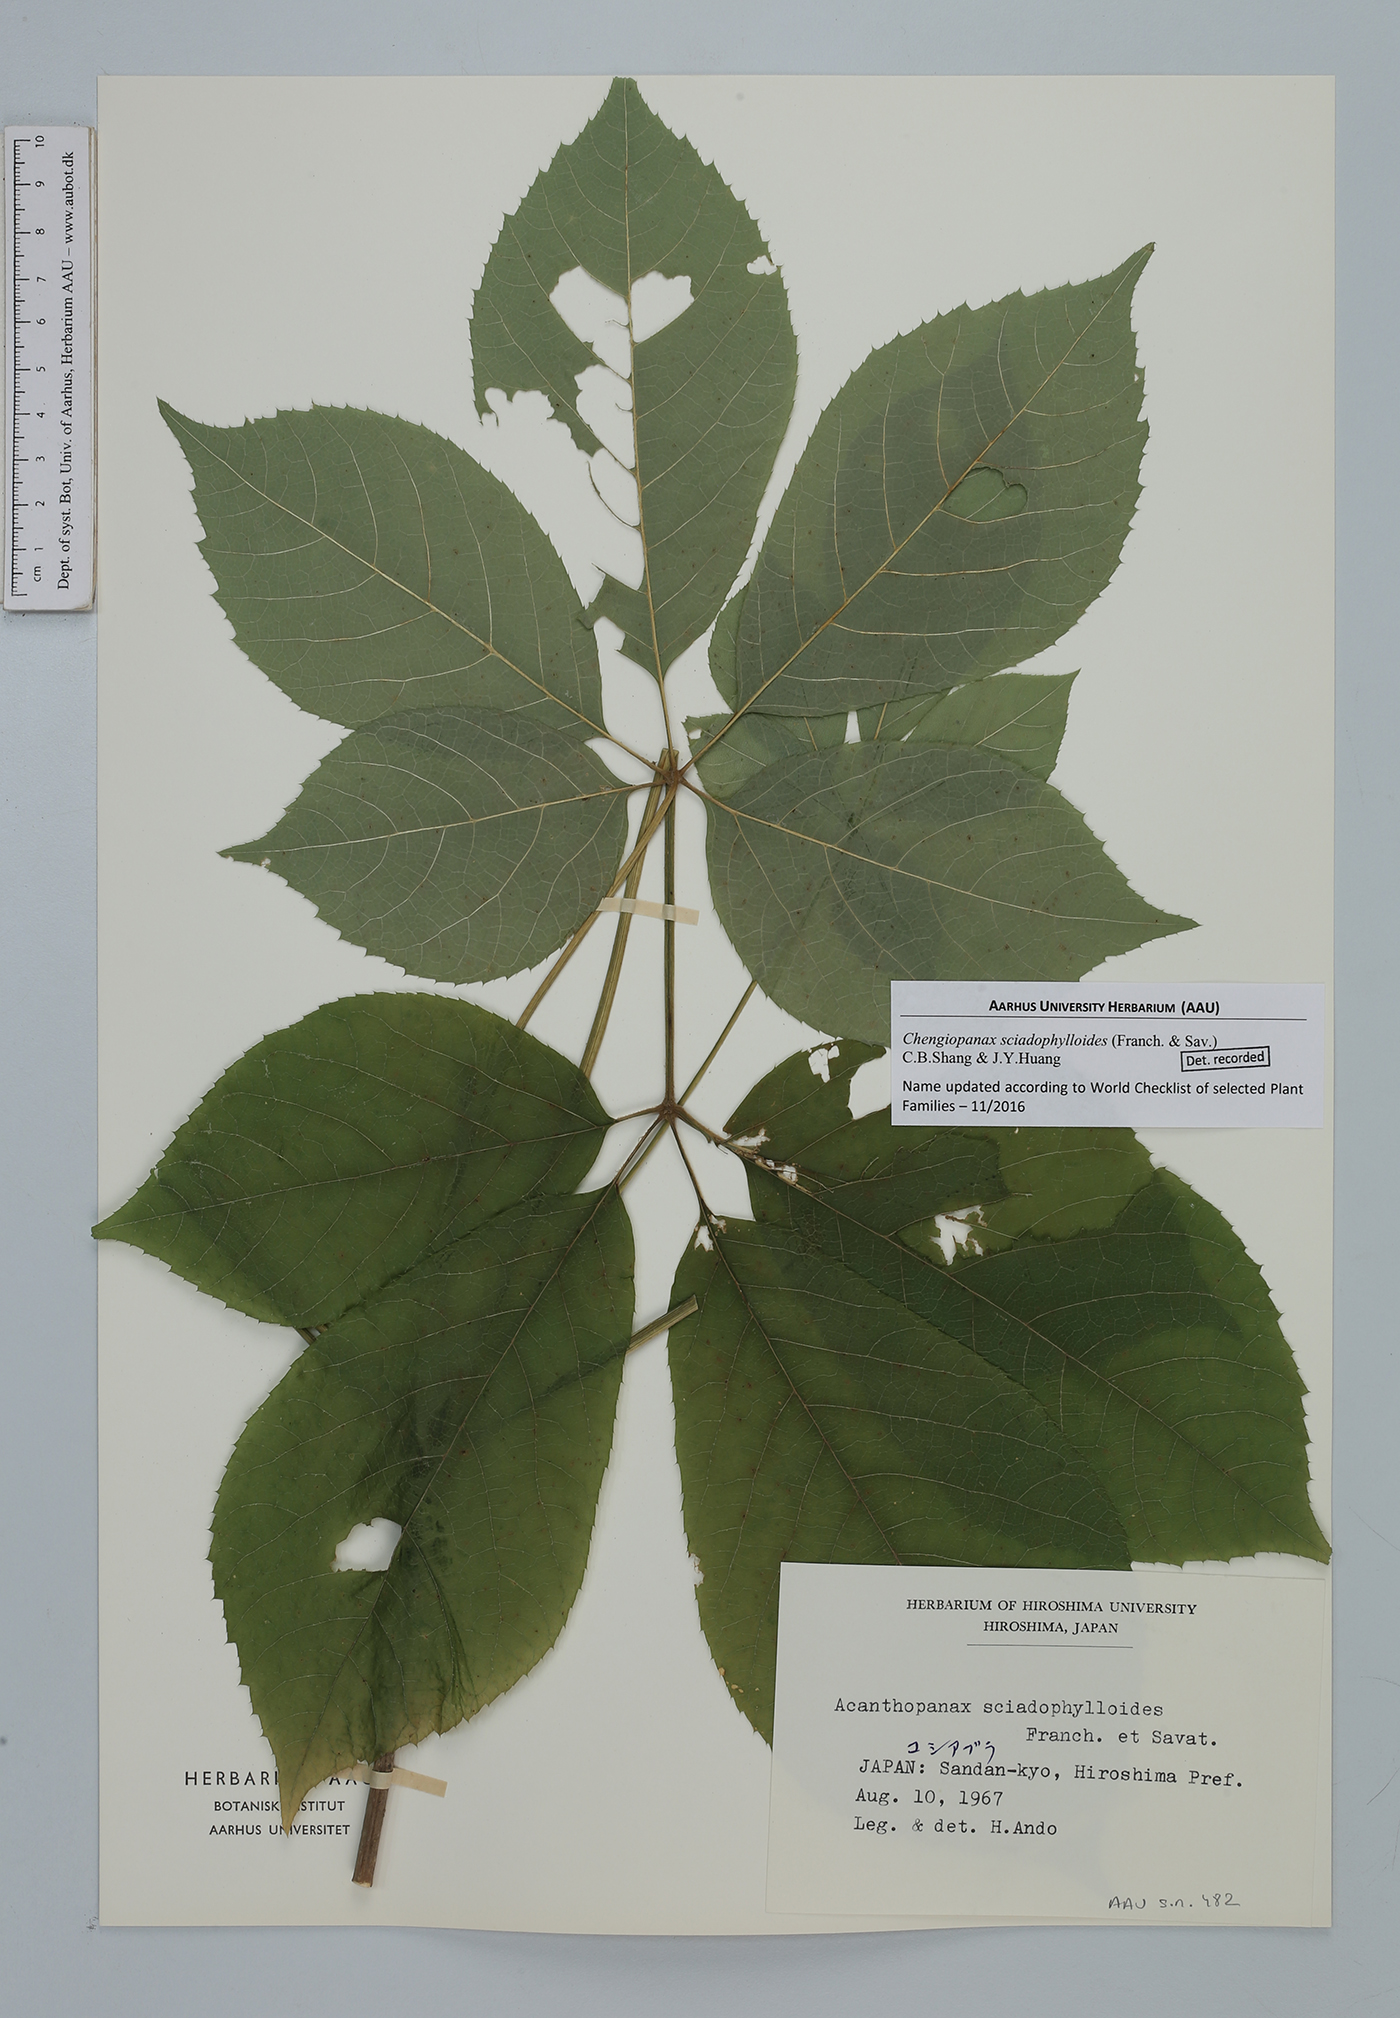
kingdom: Plantae
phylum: Tracheophyta
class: Magnoliopsida
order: Apiales
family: Araliaceae
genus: Chengiopanax
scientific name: Chengiopanax sciadophylloides
